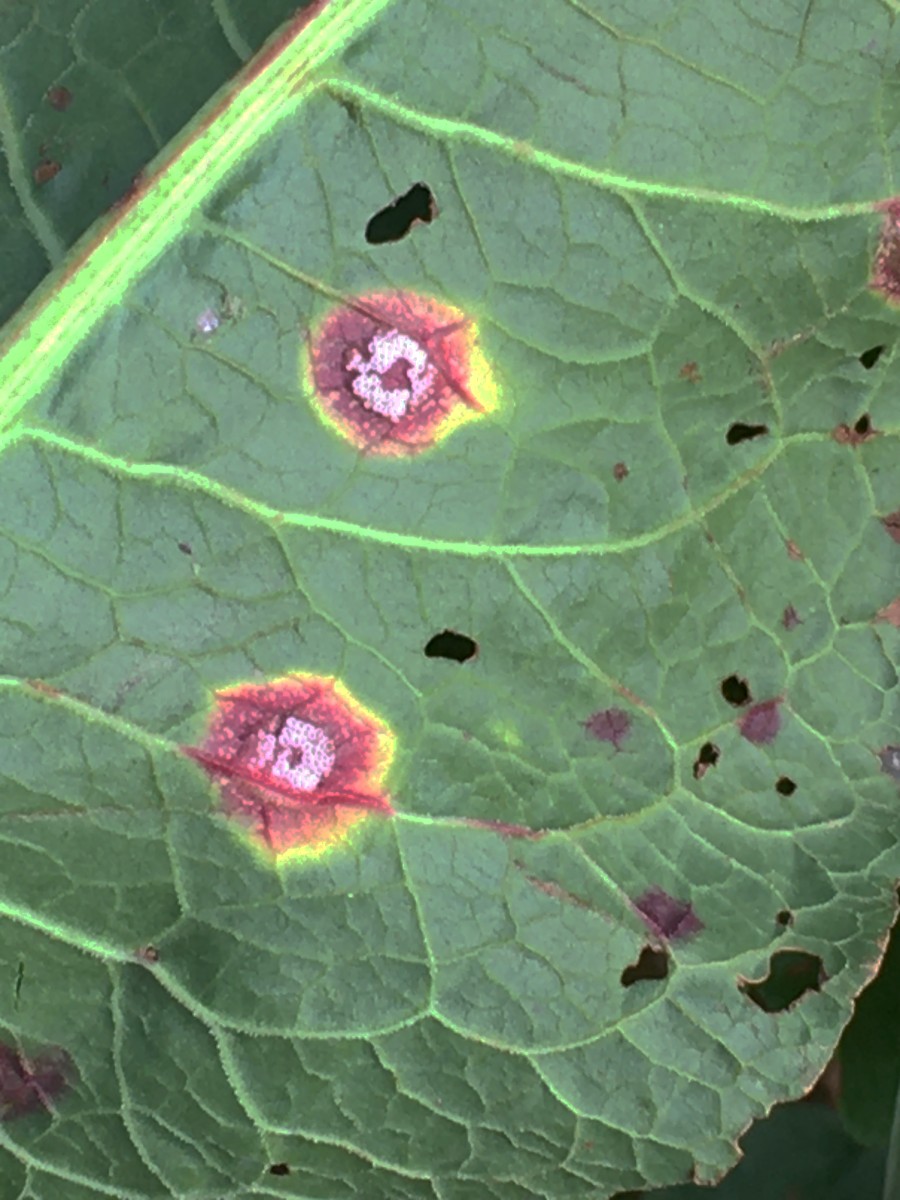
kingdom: Fungi
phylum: Basidiomycota
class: Pucciniomycetes
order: Pucciniales
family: Pucciniaceae
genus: Puccinia
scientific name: Puccinia phragmitis
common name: tagrør-tvecellerust
